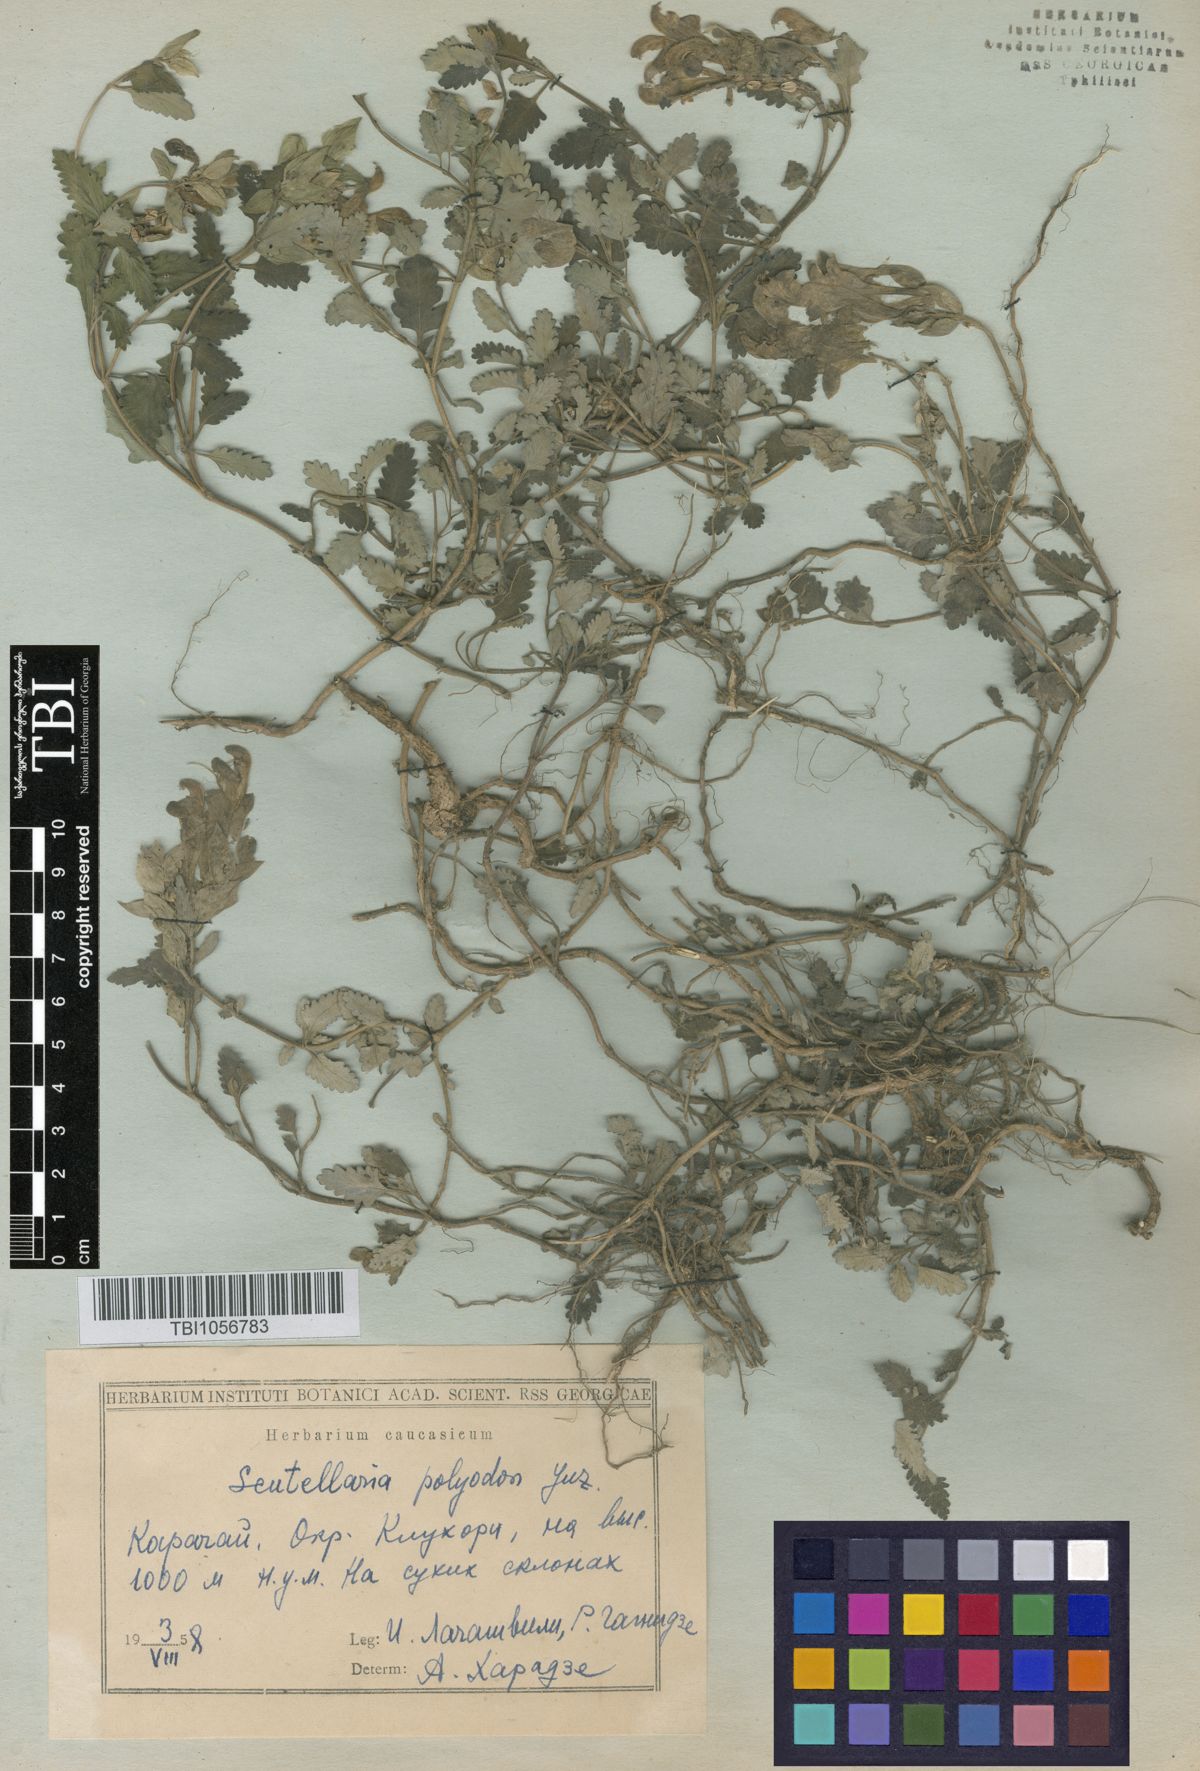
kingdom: Plantae
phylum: Tracheophyta
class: Magnoliopsida
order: Lamiales
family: Lamiaceae
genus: Scutellaria
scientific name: Scutellaria caucasica
